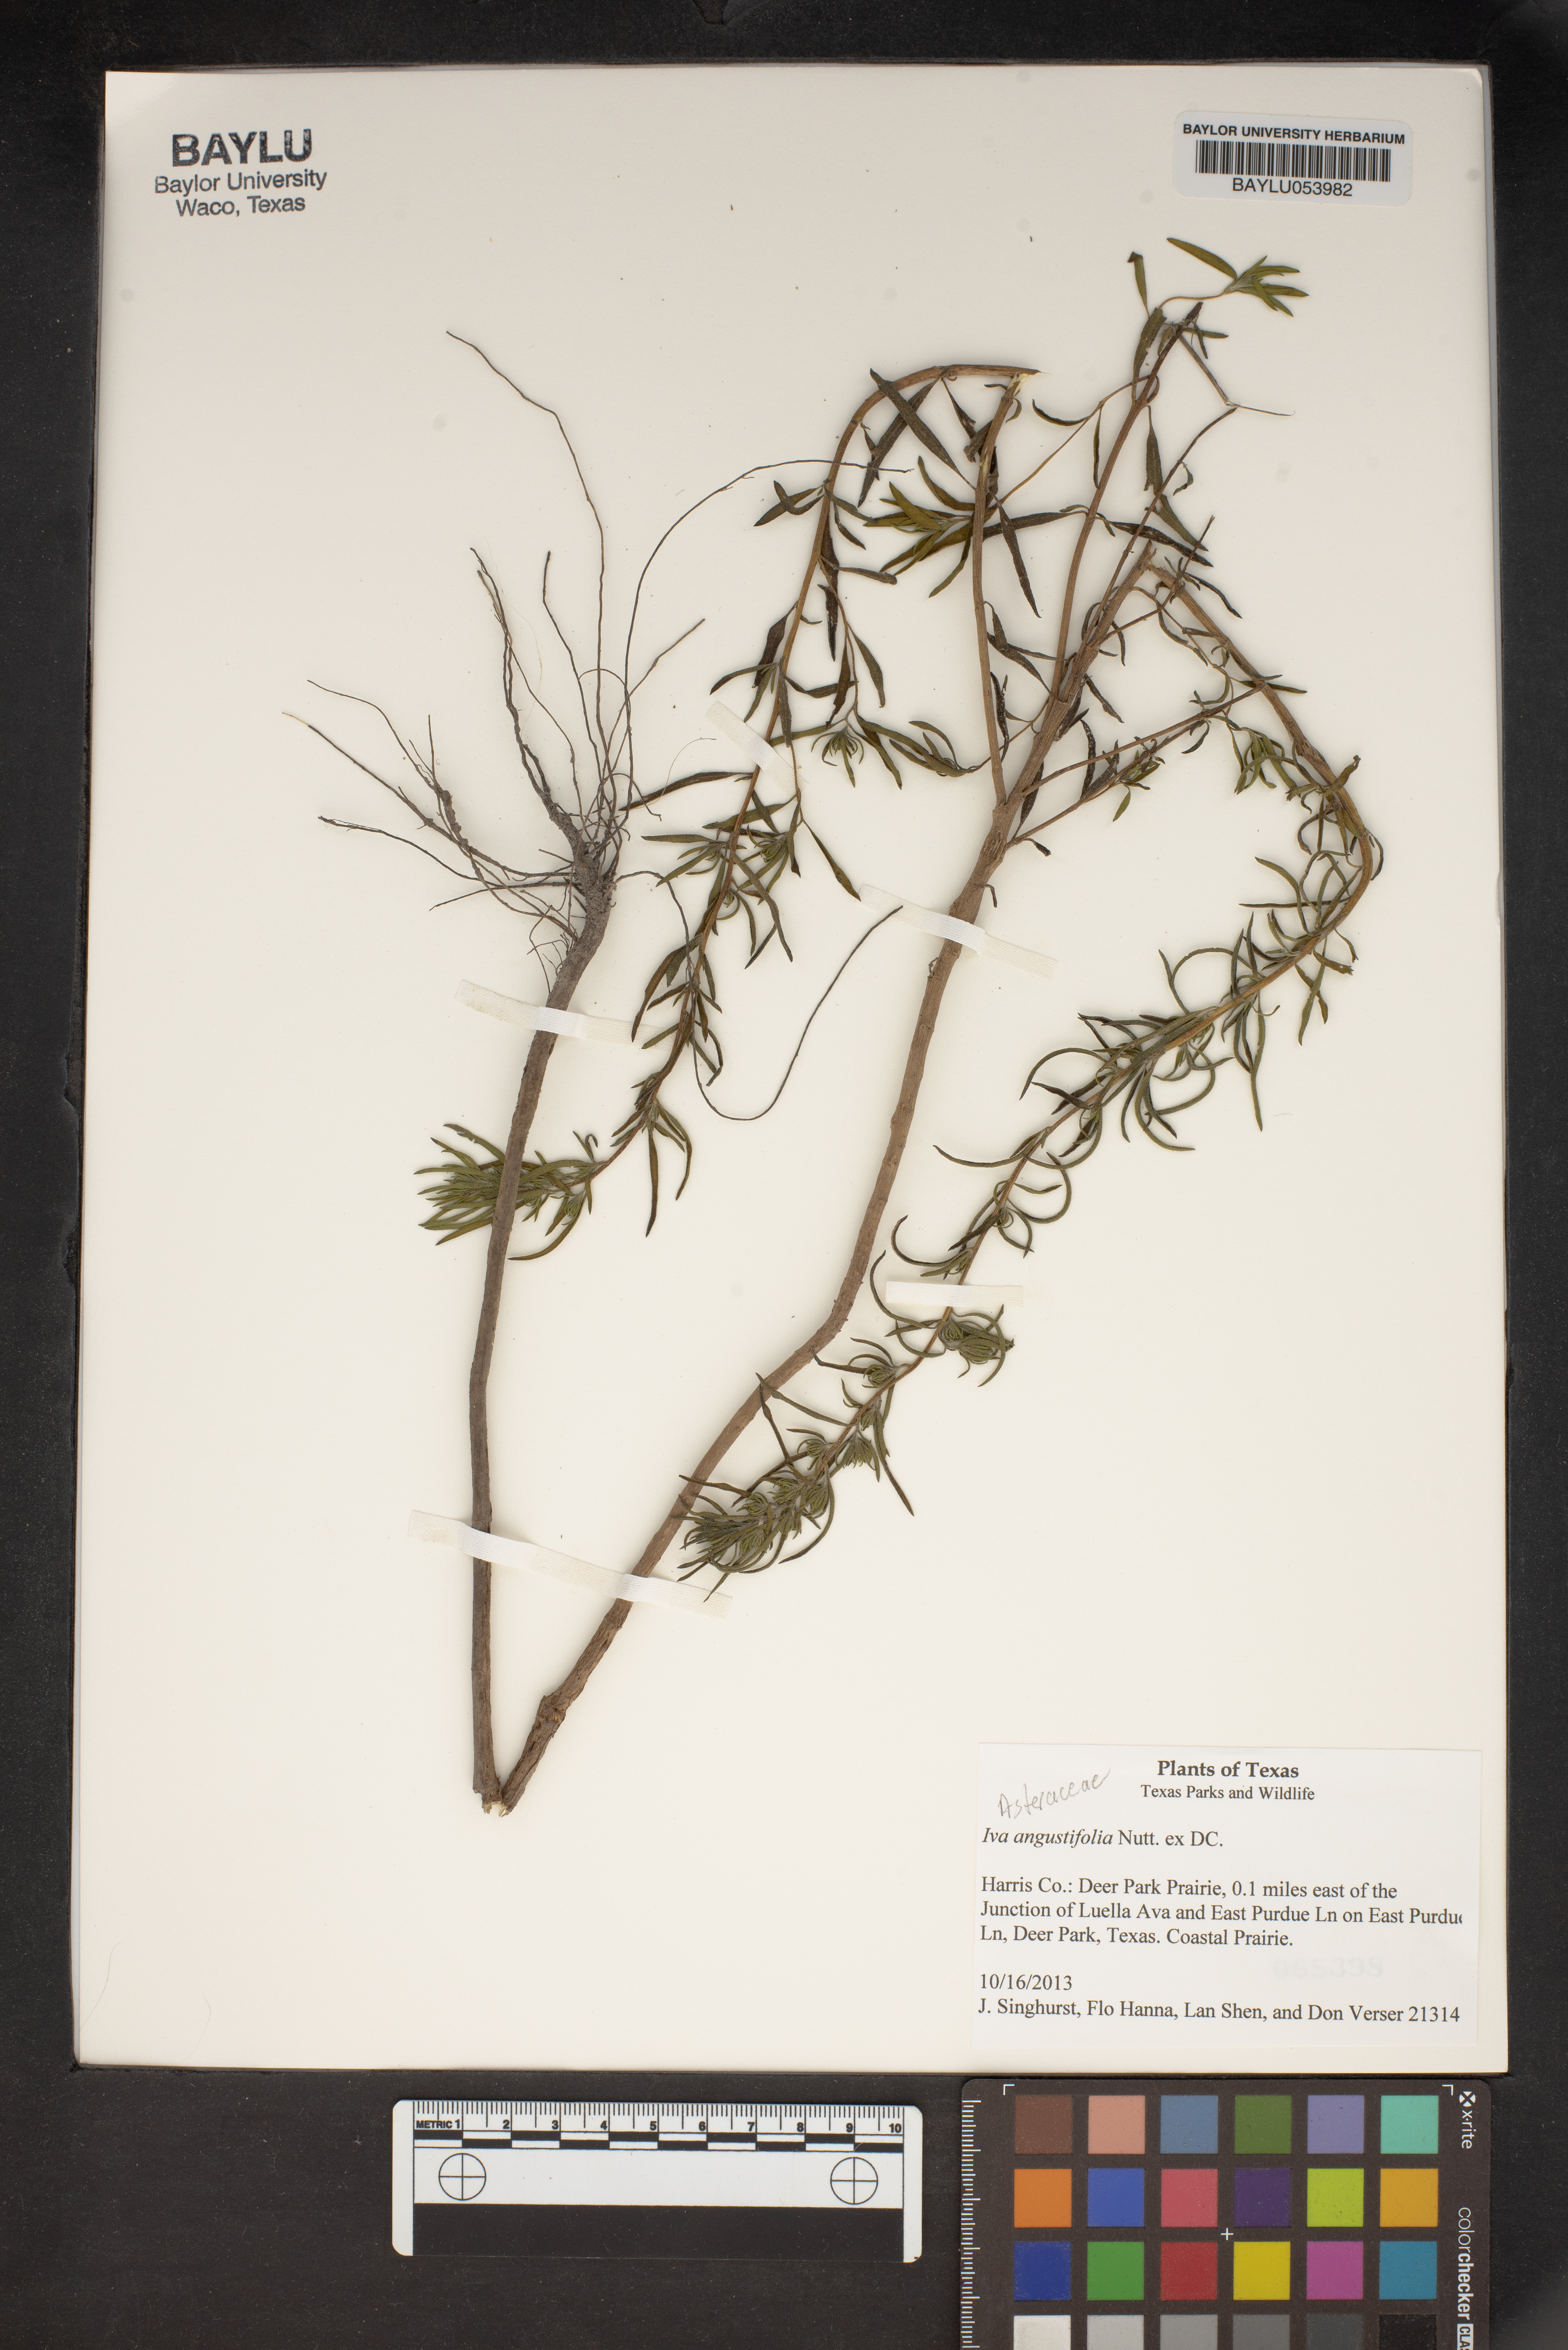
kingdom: Plantae
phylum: Tracheophyta
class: Magnoliopsida
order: Asterales
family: Asteraceae
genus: Iva
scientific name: Iva asperifolia
